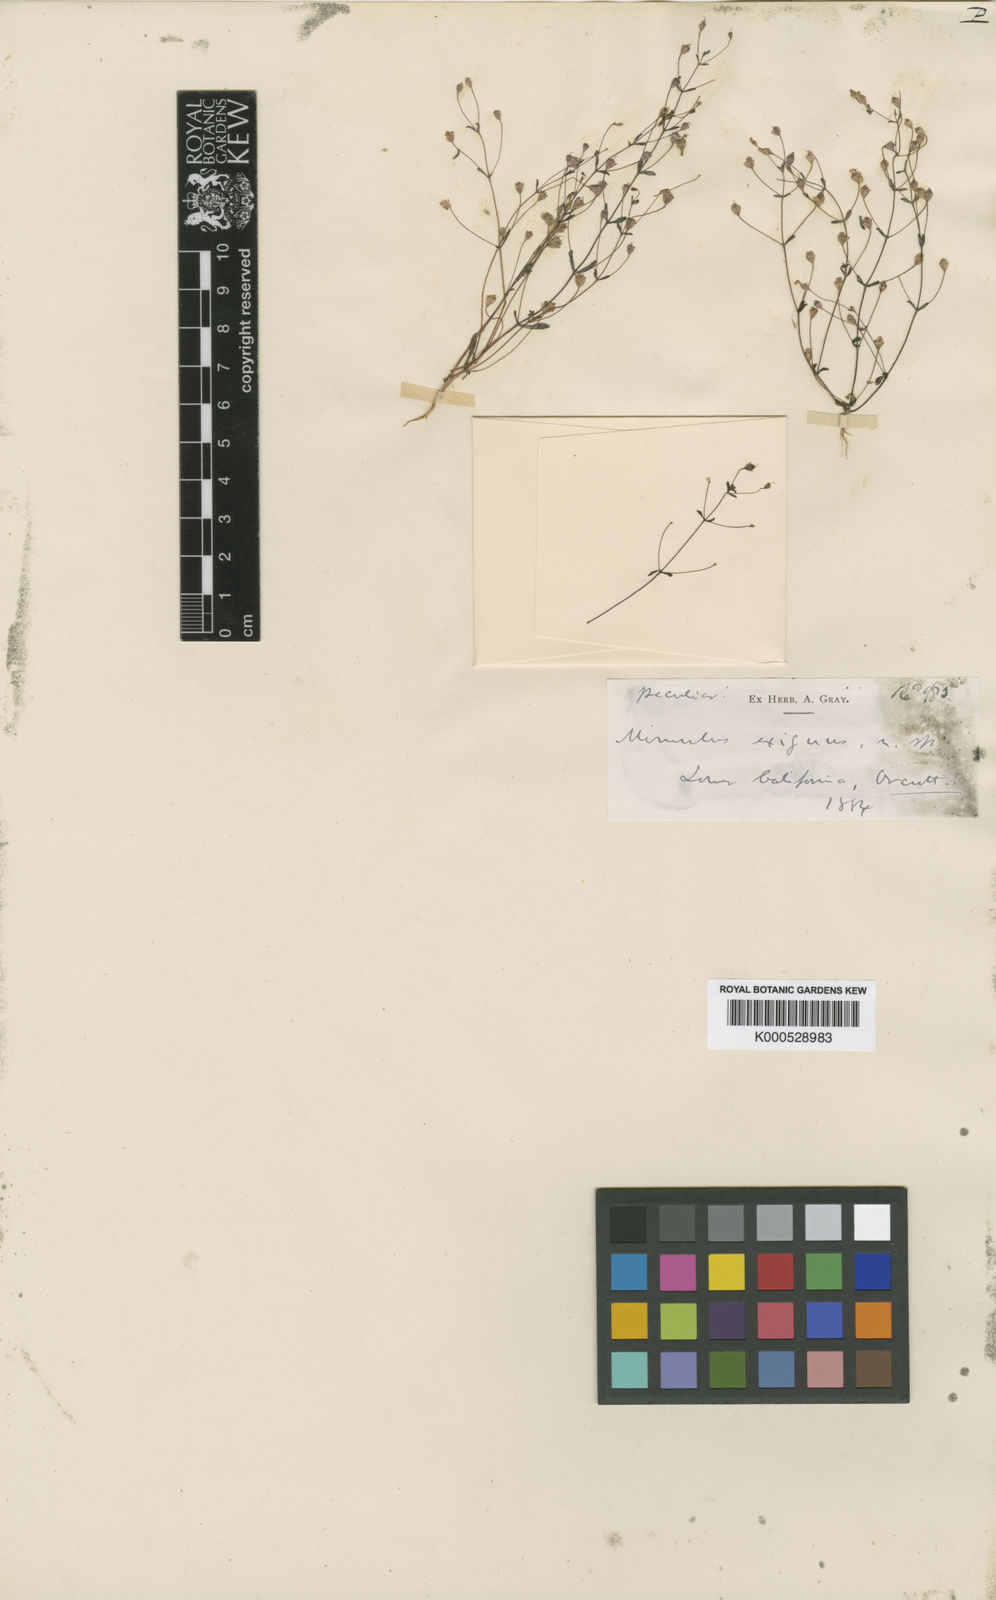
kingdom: Plantae
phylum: Tracheophyta
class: Magnoliopsida
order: Lamiales
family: Phrymaceae
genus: Erythranthe
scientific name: Erythranthe exigua
